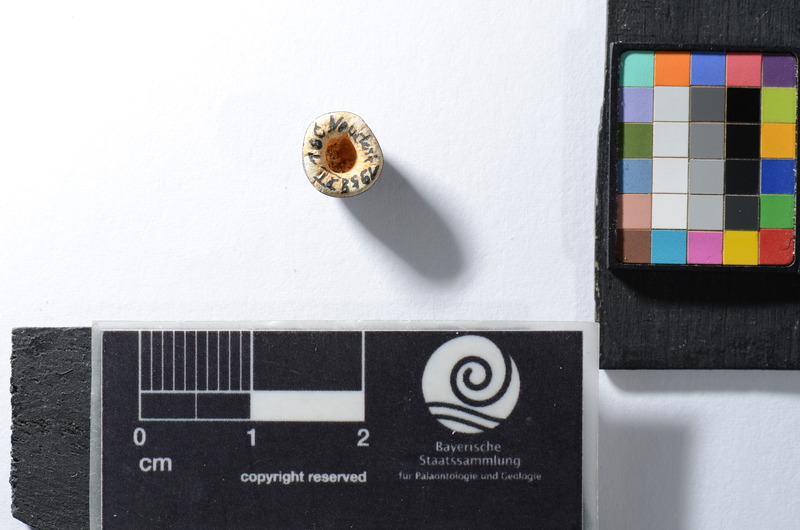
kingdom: Animalia
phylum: Chordata
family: Pycnodontidae
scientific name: Pycnodontidae
